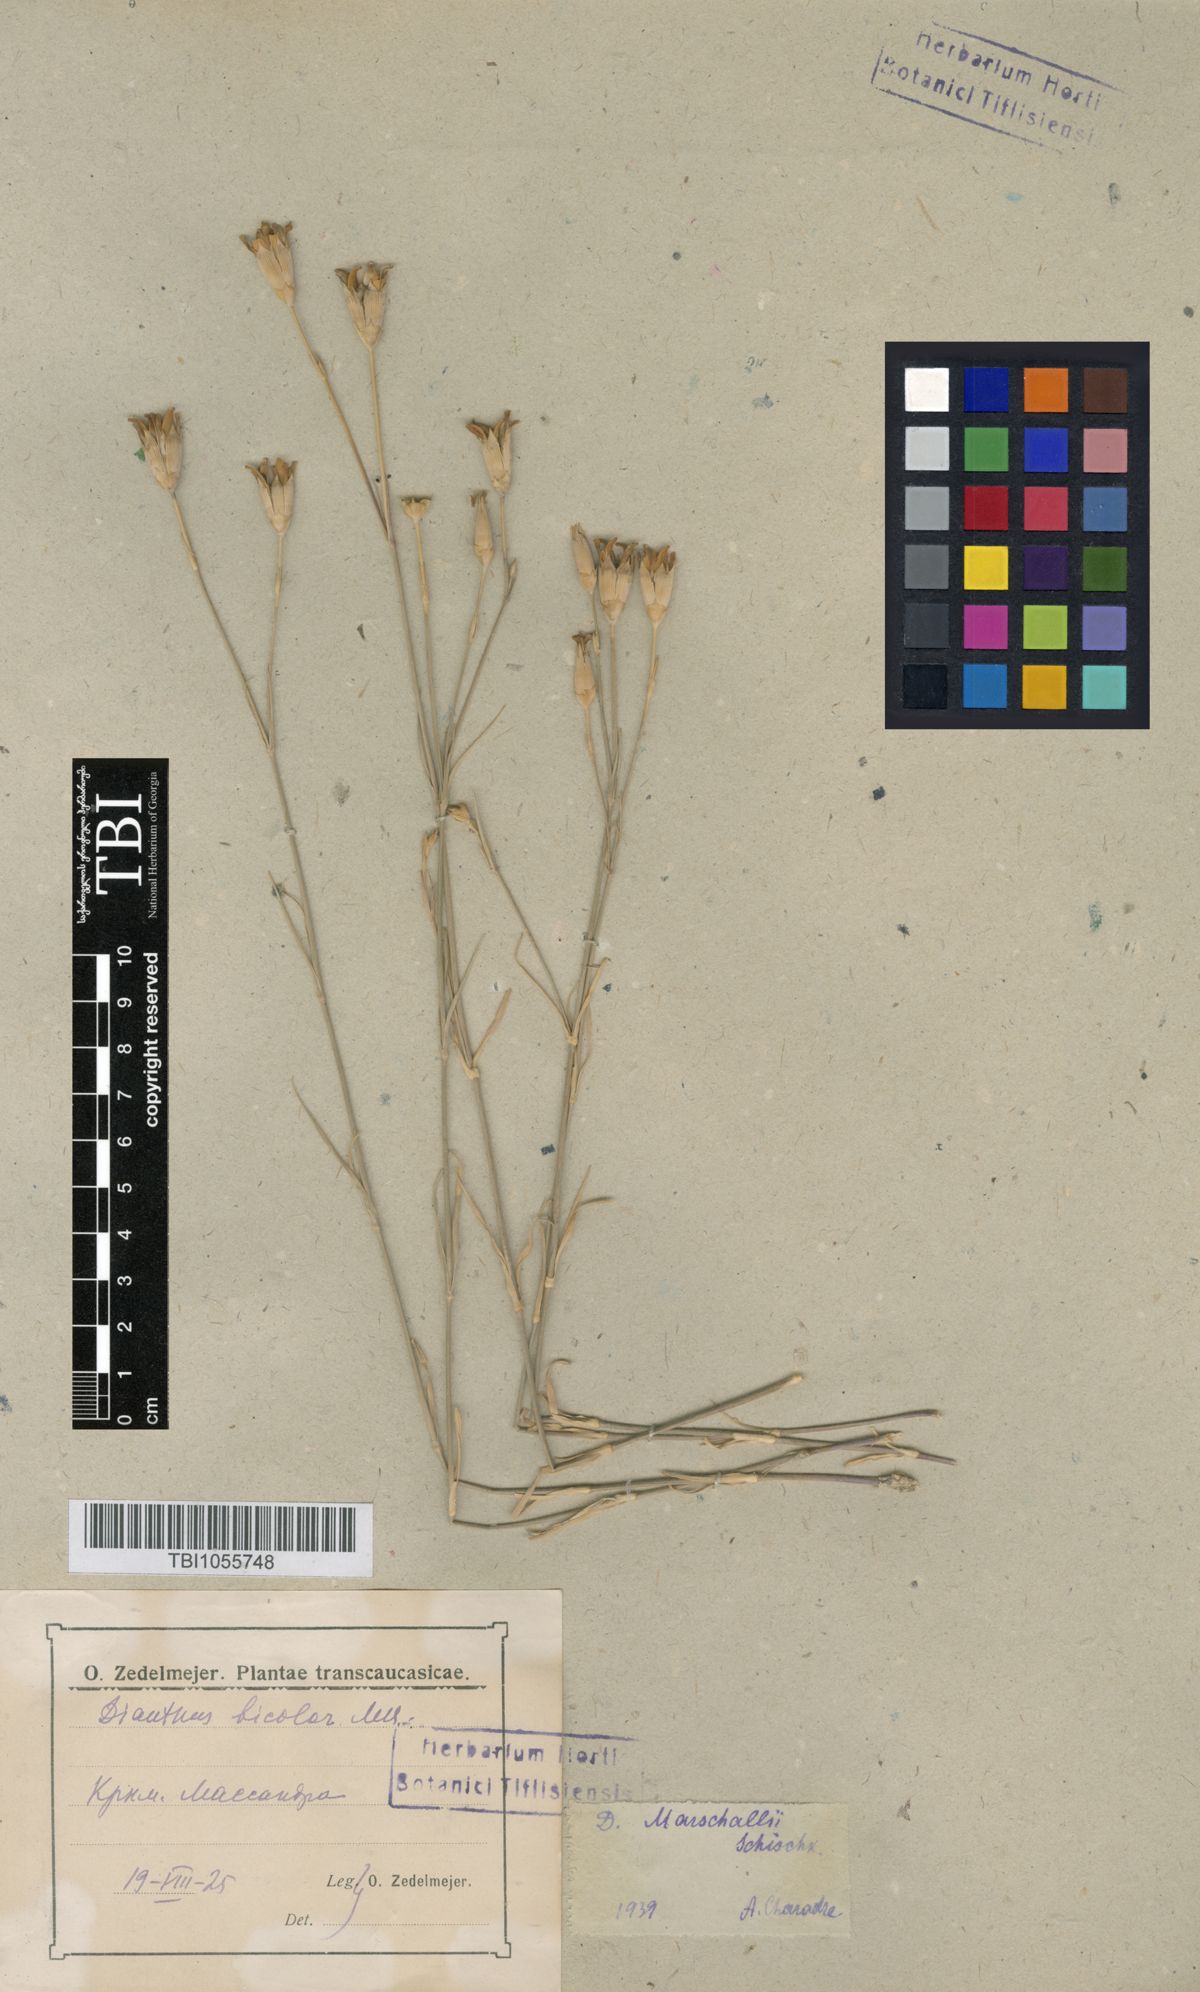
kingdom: Plantae
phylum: Tracheophyta
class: Magnoliopsida
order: Caryophyllales
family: Caryophyllaceae
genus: Dianthus
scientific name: Dianthus marschallii
